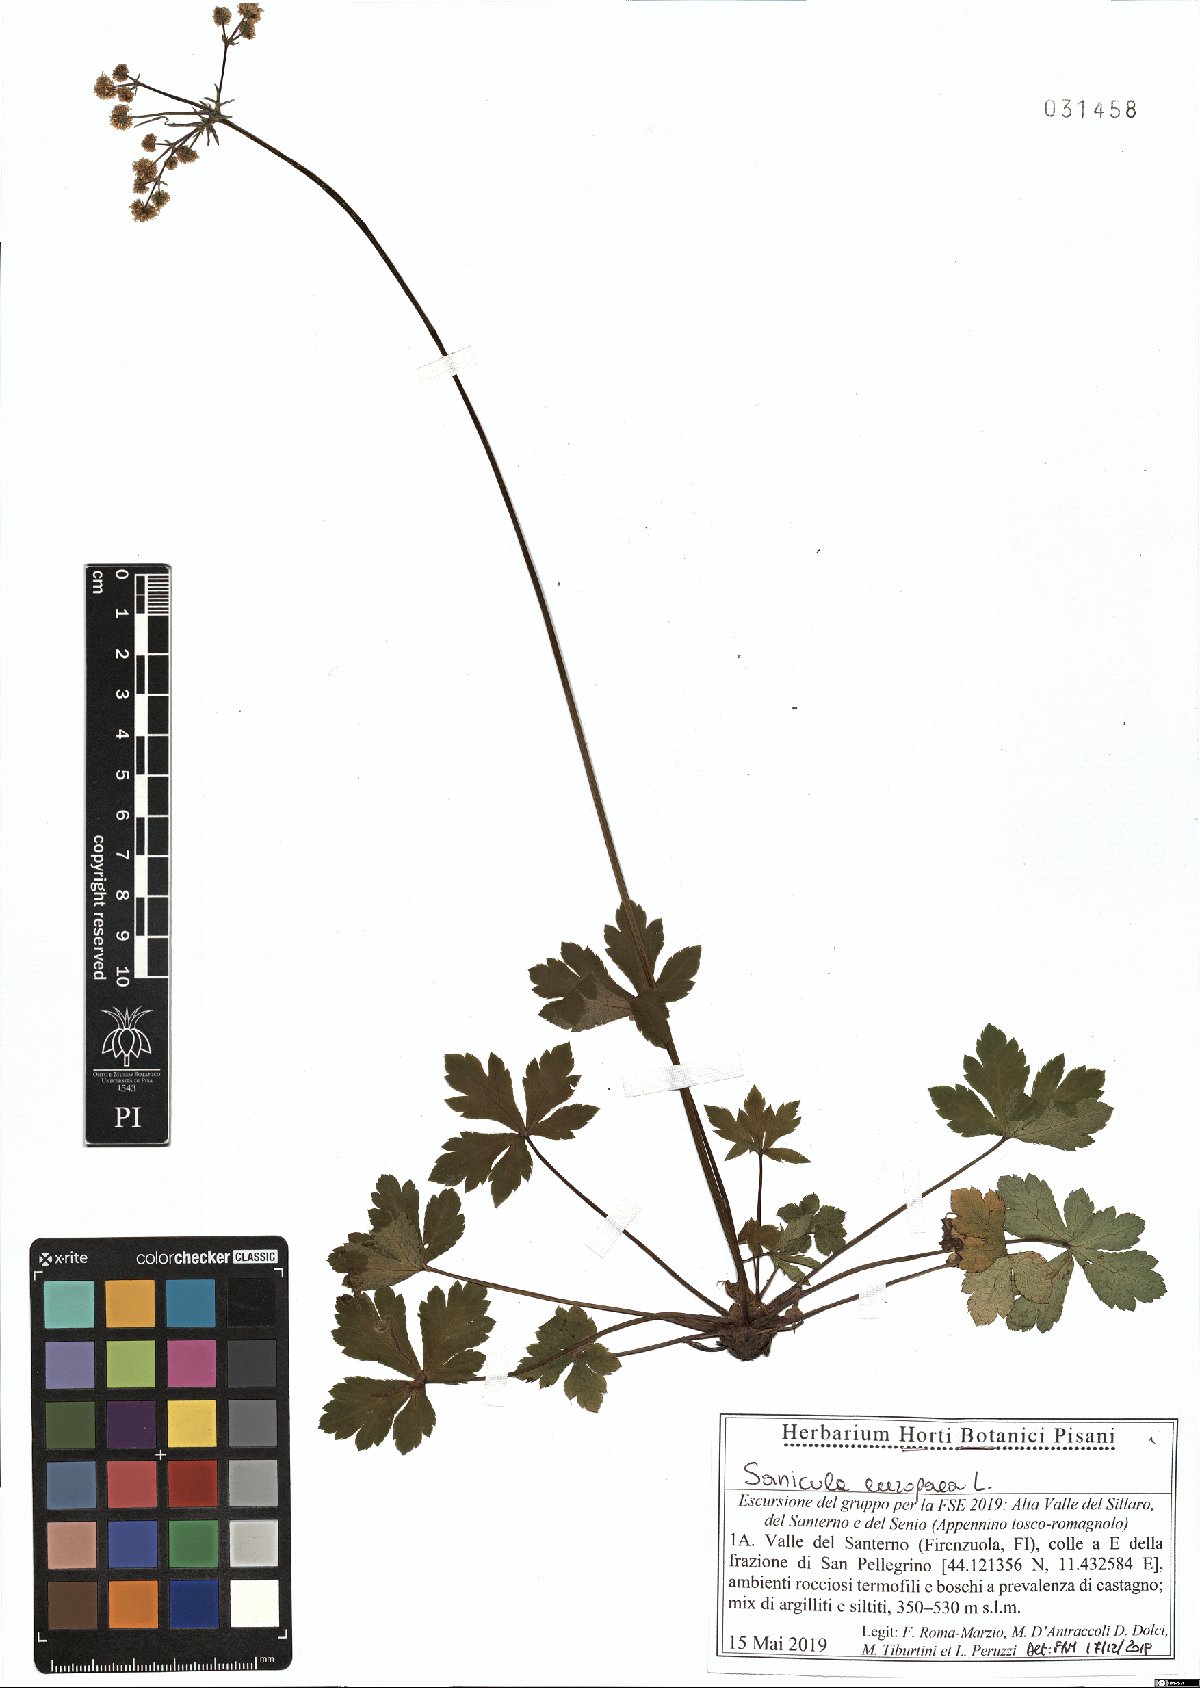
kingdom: Plantae
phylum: Tracheophyta
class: Magnoliopsida
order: Apiales
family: Apiaceae
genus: Sanicula
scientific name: Sanicula europaea
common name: Sanicle
